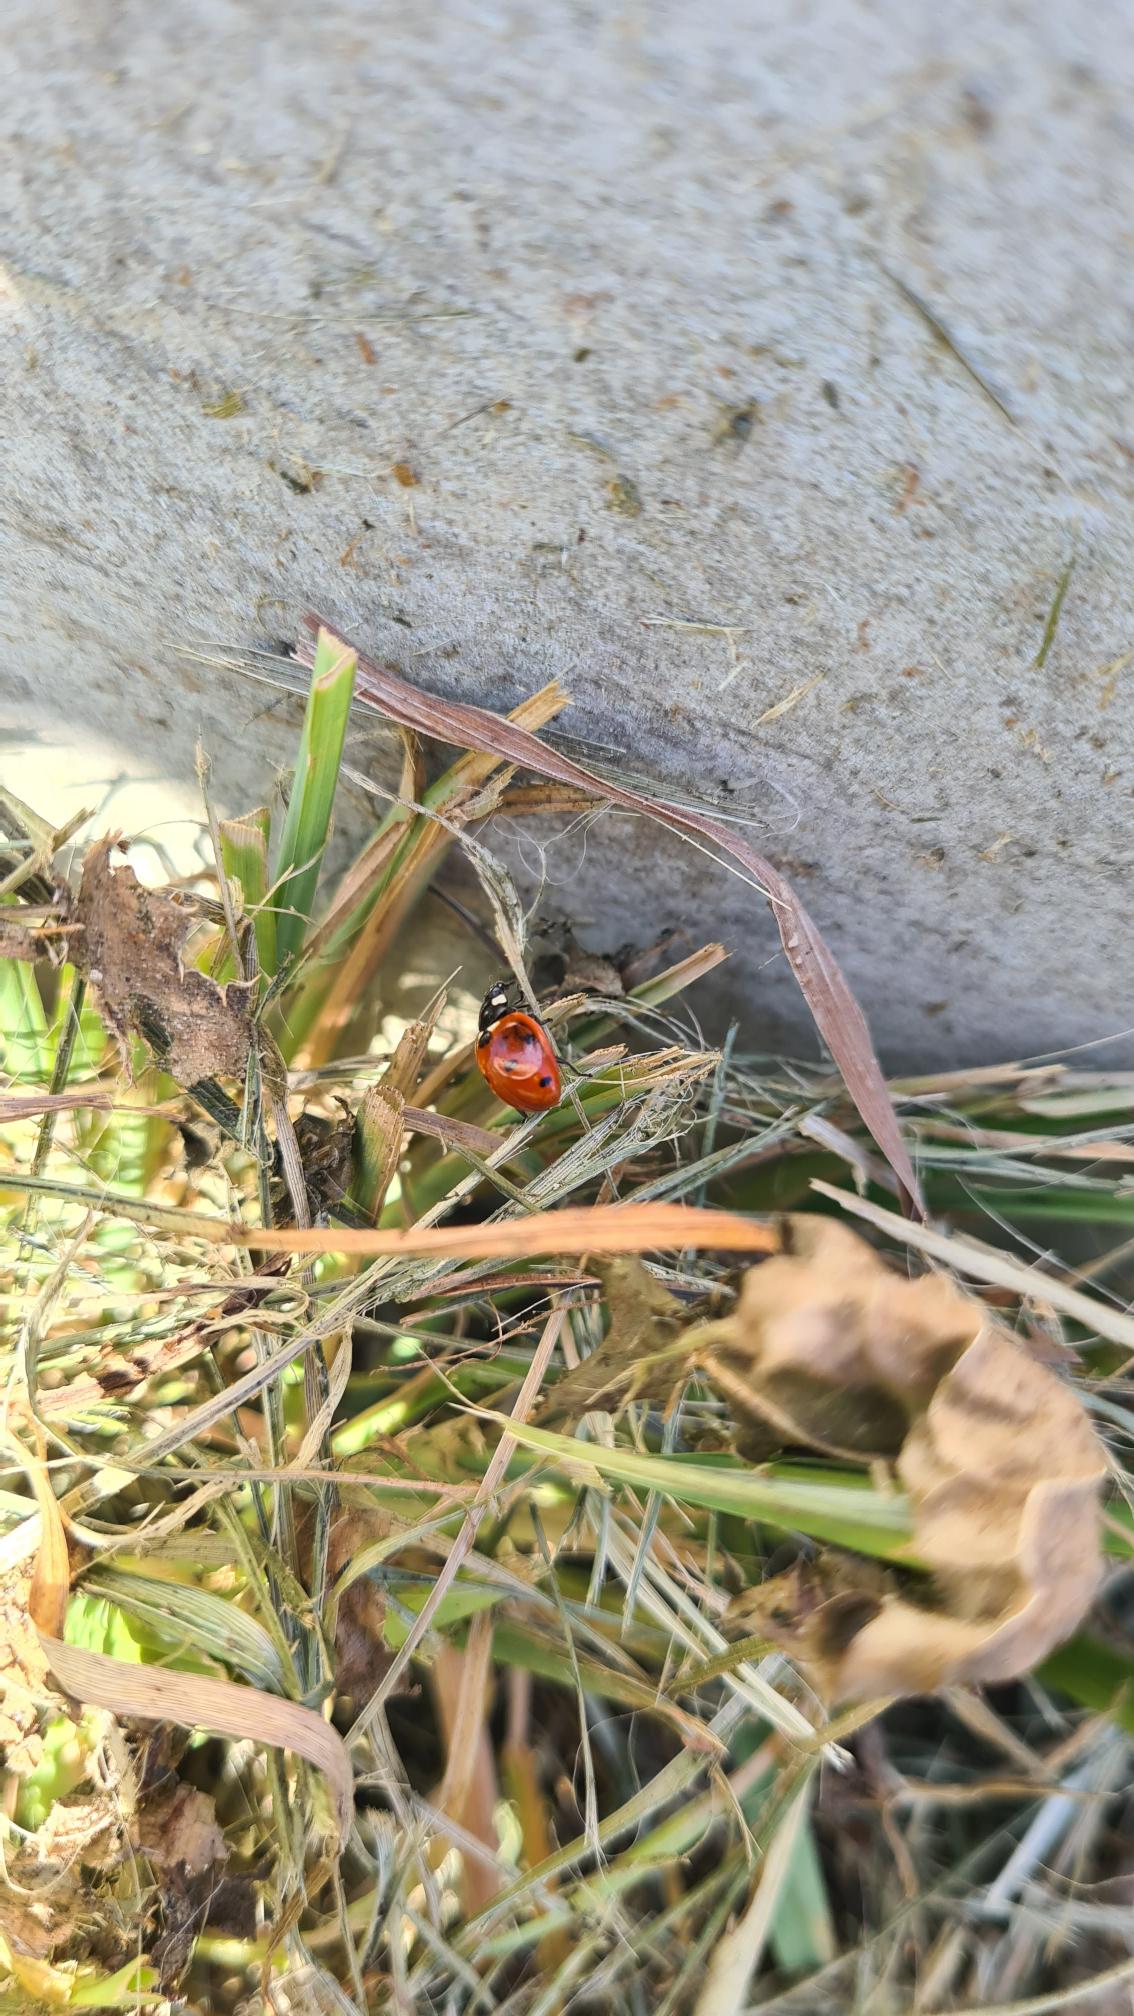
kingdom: Animalia
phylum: Arthropoda
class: Insecta
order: Coleoptera
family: Coccinellidae
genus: Coccinella
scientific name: Coccinella septempunctata
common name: Syvplettet mariehøne
